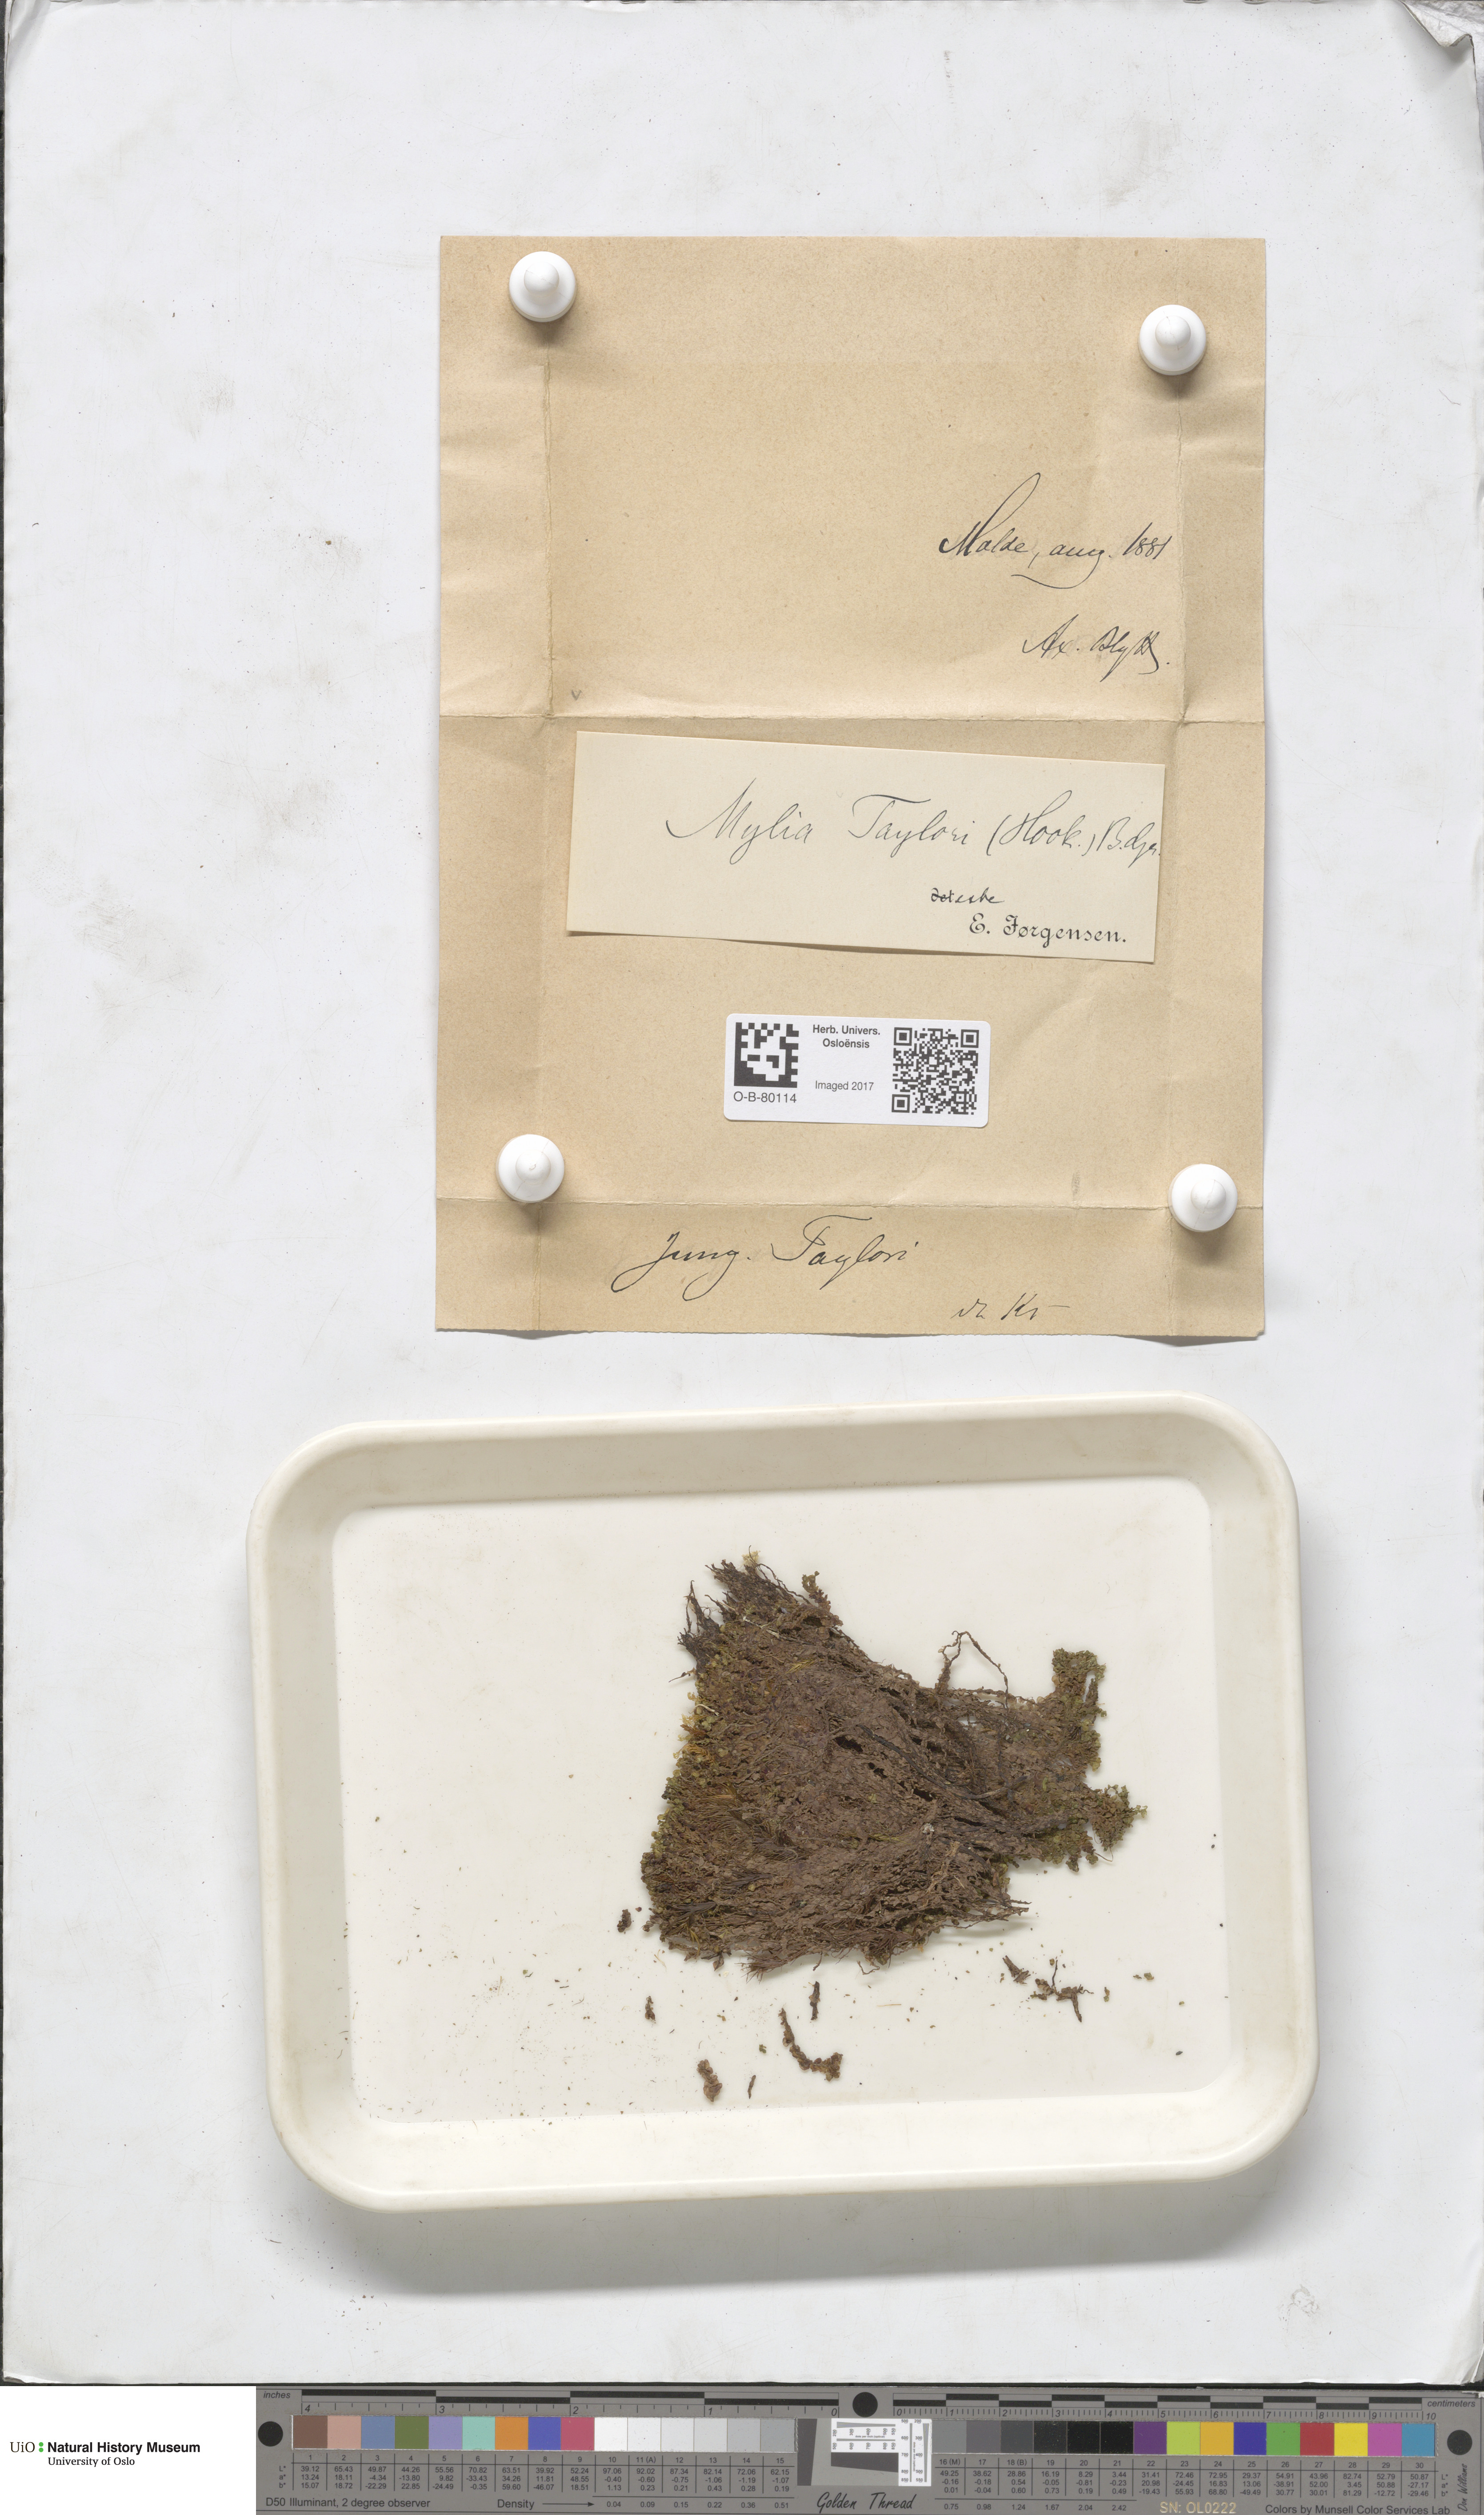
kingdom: Plantae
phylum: Marchantiophyta
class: Jungermanniopsida
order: Jungermanniales
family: Myliaceae
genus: Mylia
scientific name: Mylia taylorii
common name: Taylor s flapwort
